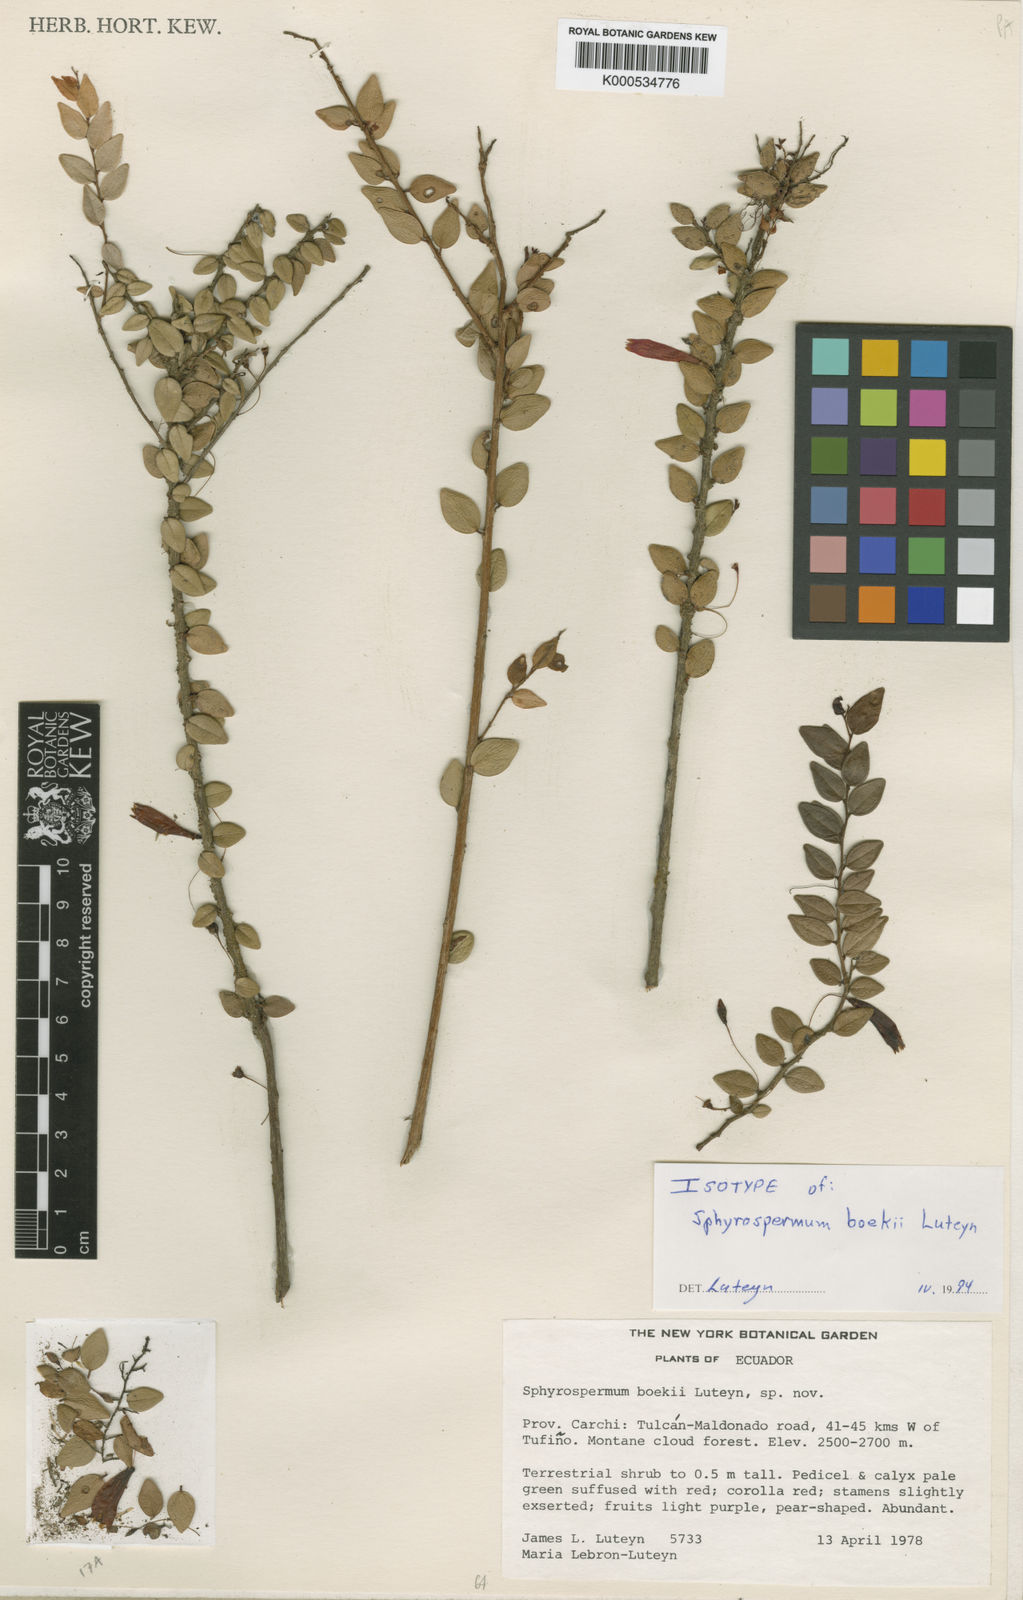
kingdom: Plantae
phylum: Tracheophyta
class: Magnoliopsida
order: Ericales
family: Ericaceae
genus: Sphyrospermum
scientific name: Sphyrospermum boekei
